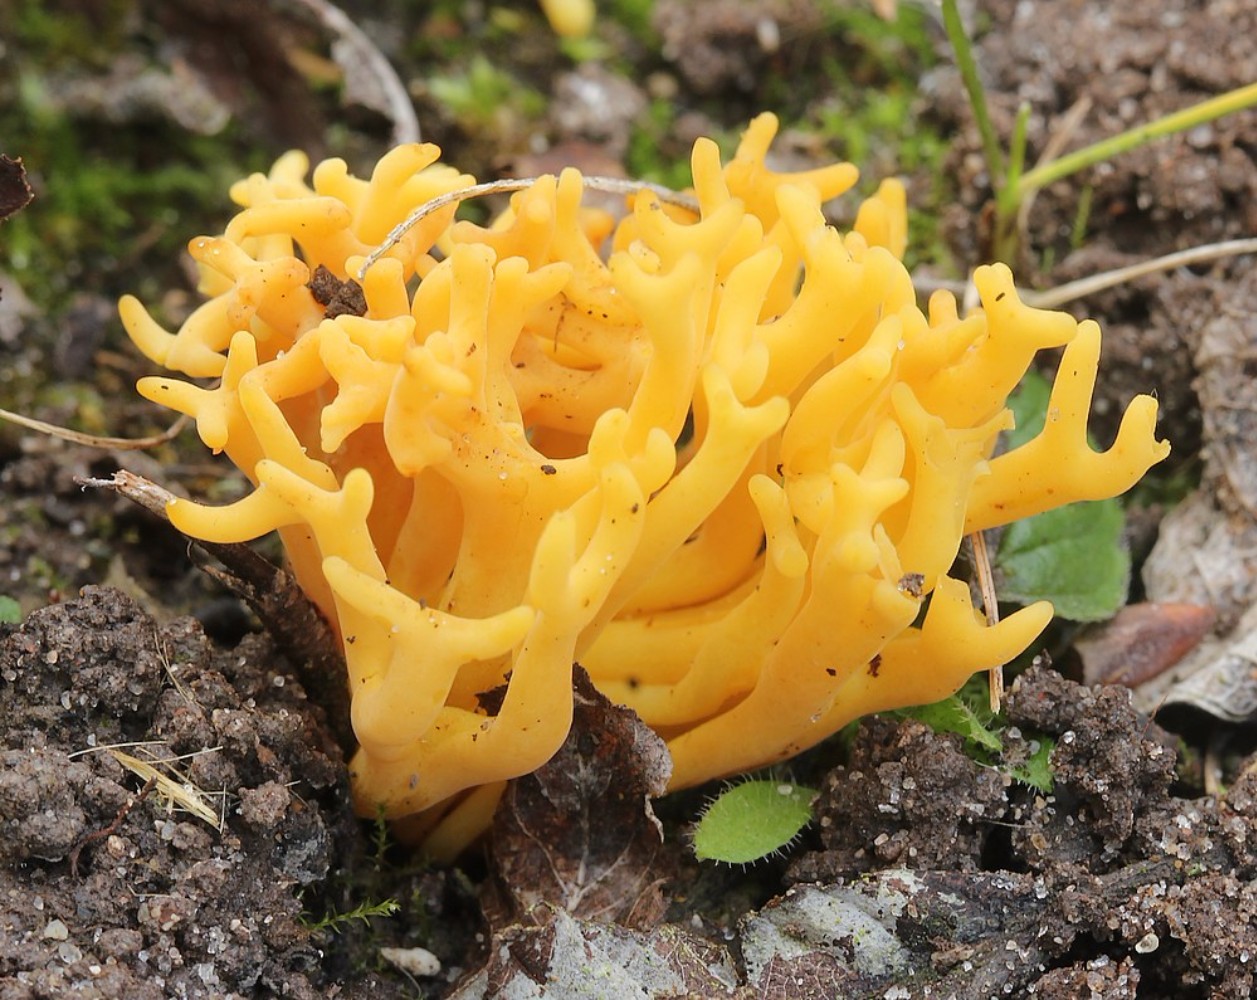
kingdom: Fungi
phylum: Basidiomycota
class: Agaricomycetes
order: Agaricales
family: Clavariaceae
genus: Clavulinopsis
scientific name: Clavulinopsis corniculata
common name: eng-køllesvamp
